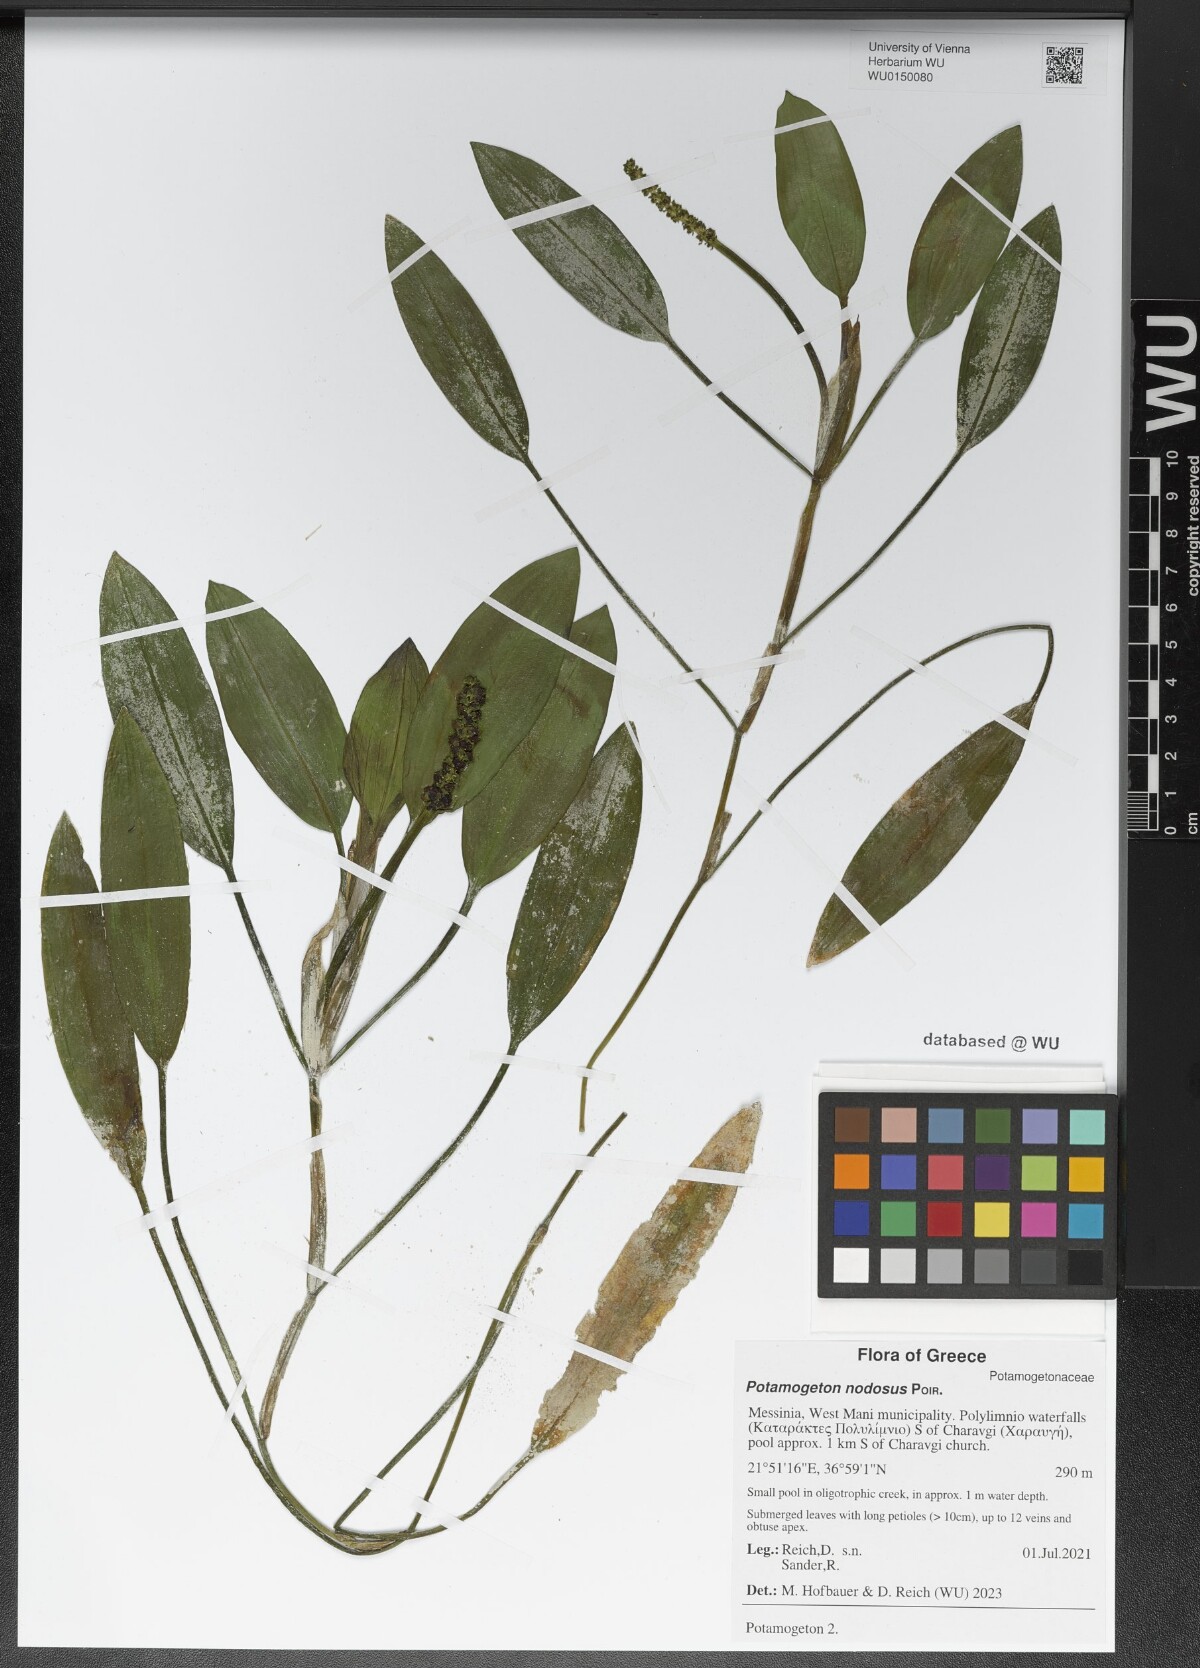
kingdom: Plantae
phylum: Tracheophyta
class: Liliopsida
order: Alismatales
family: Potamogetonaceae
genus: Potamogeton
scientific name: Potamogeton nodosus
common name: Loddon pondweed
